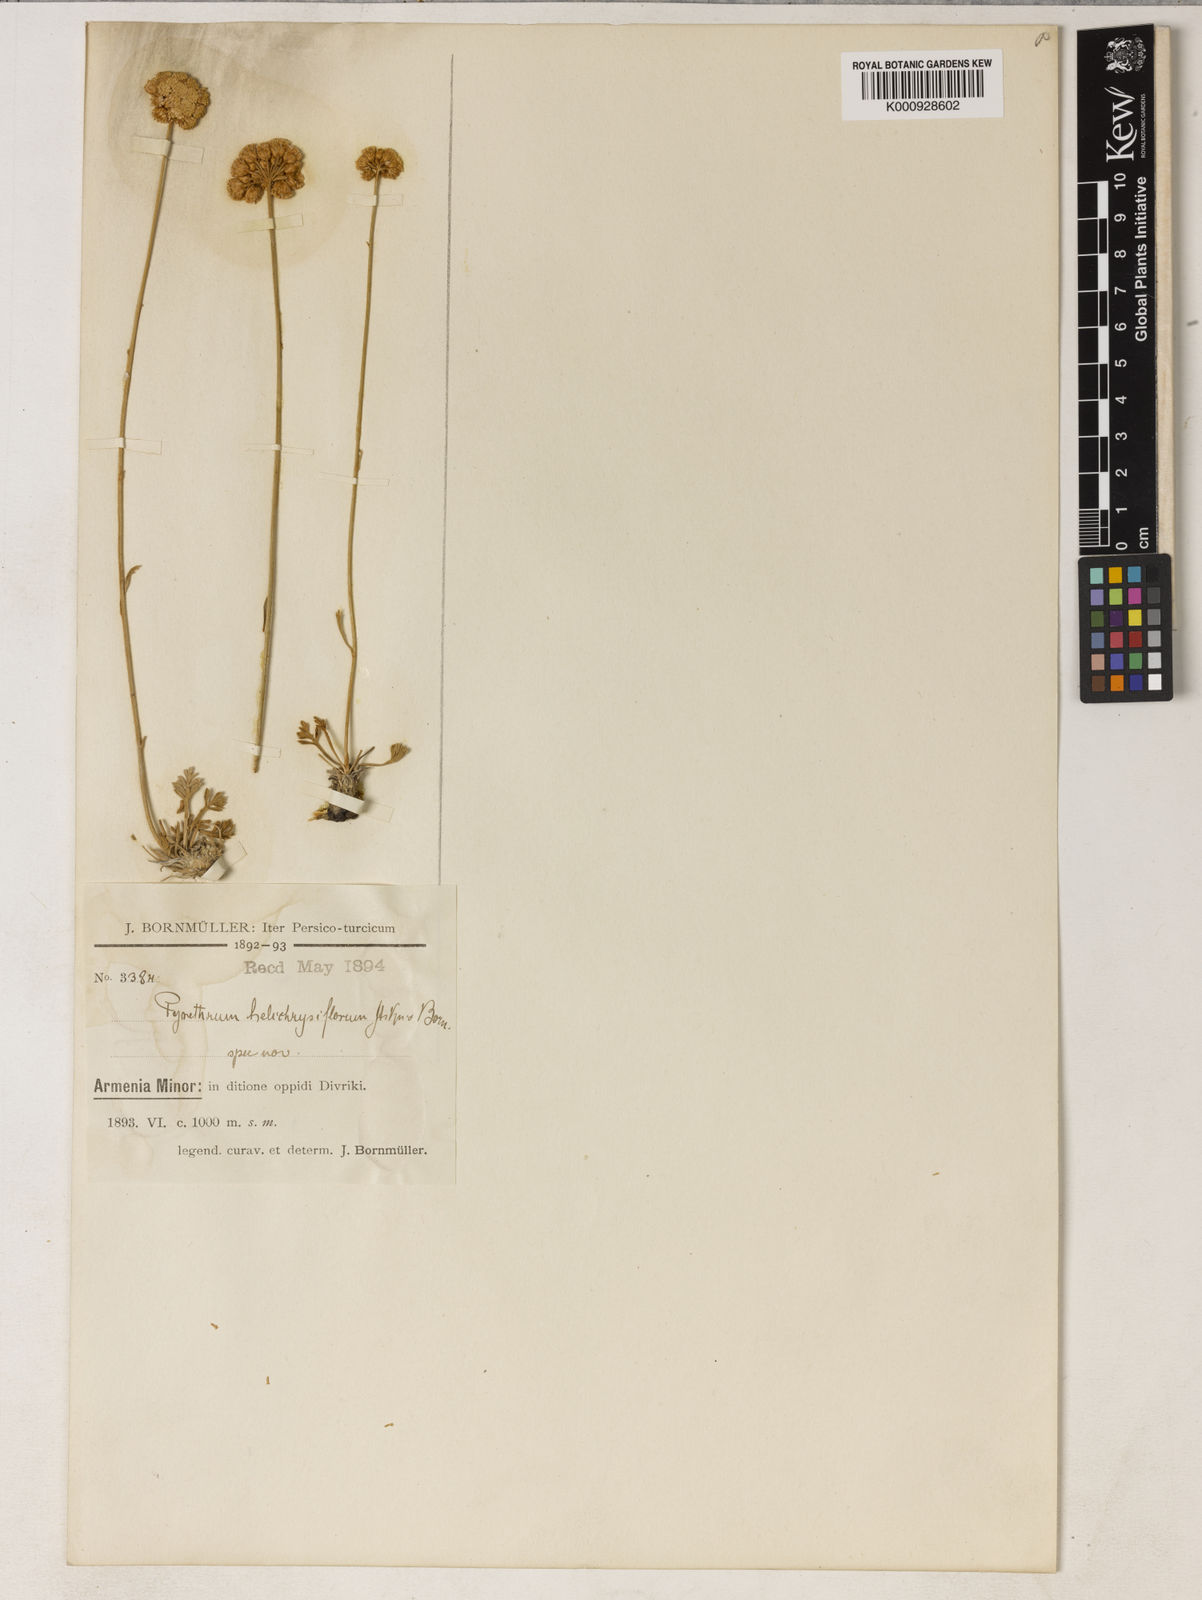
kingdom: Plantae
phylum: Tracheophyta
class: Magnoliopsida
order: Asterales
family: Asteraceae
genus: Tanacetum
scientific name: Tanacetum argenteum
